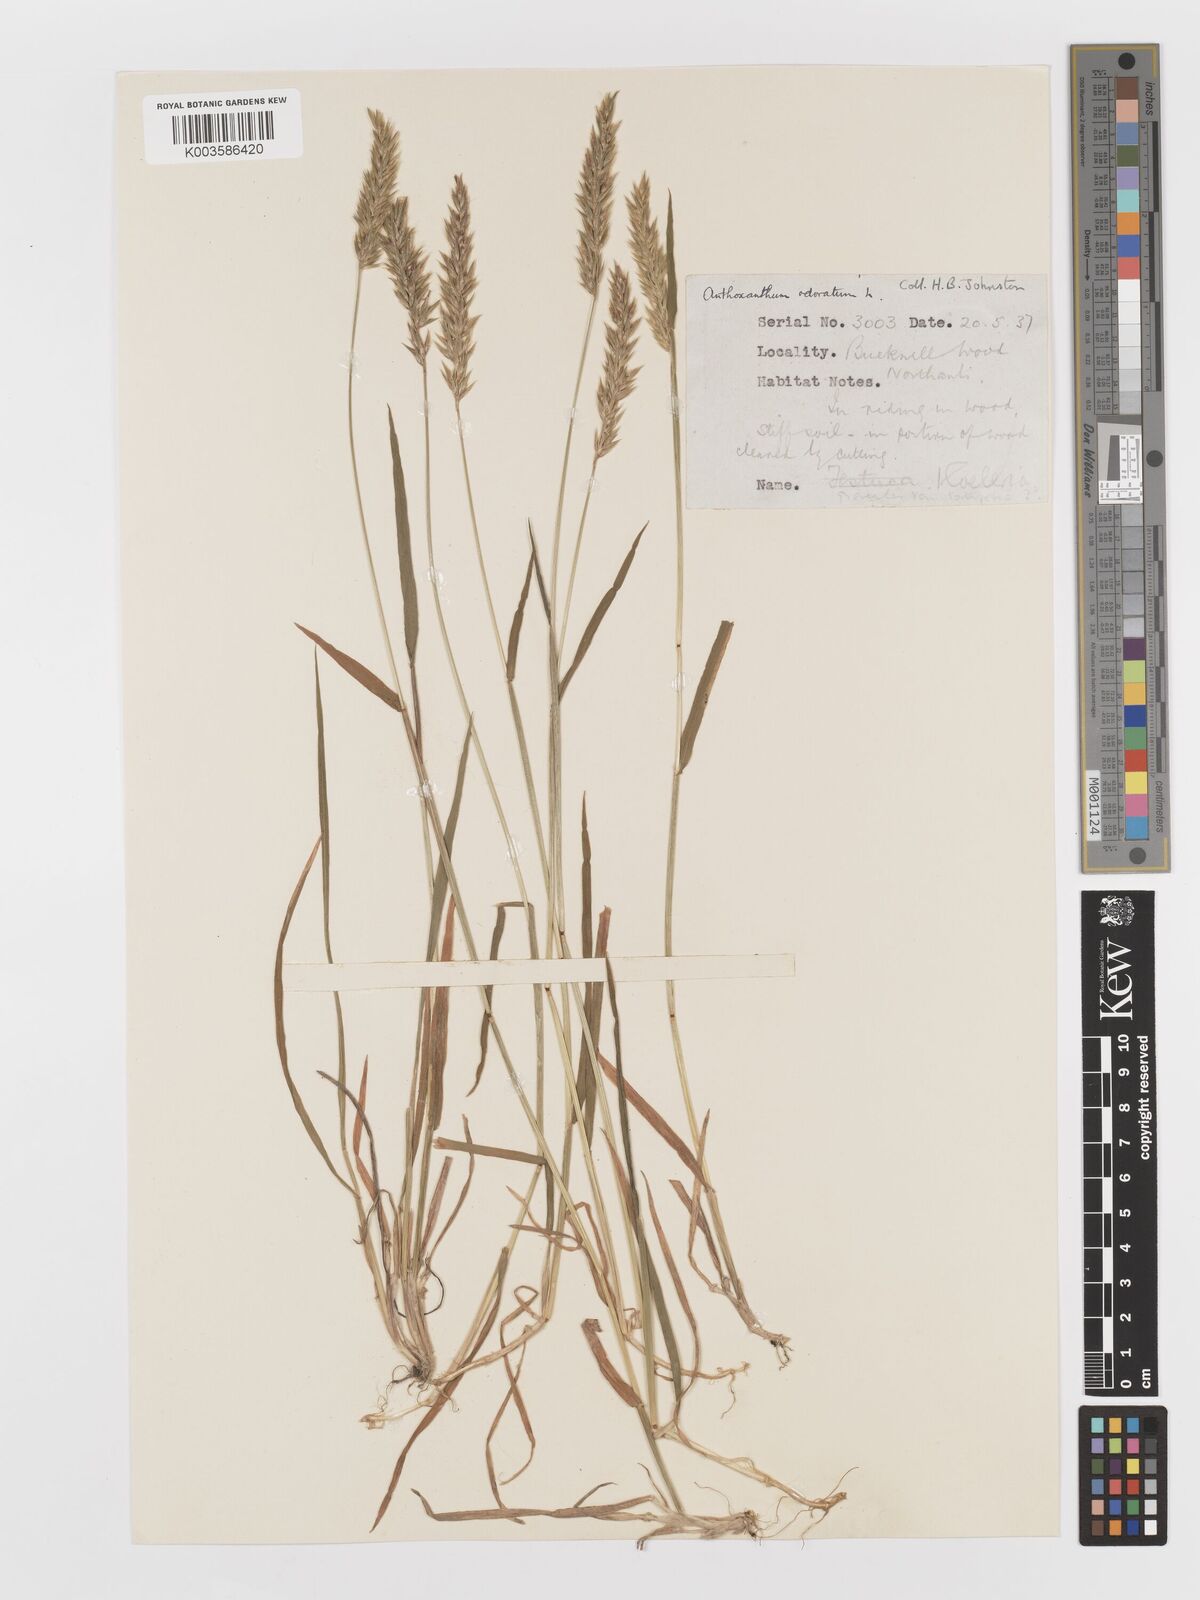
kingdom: Plantae
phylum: Tracheophyta
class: Liliopsida
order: Poales
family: Poaceae
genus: Anthoxanthum
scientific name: Anthoxanthum odoratum
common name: Sweet vernalgrass
